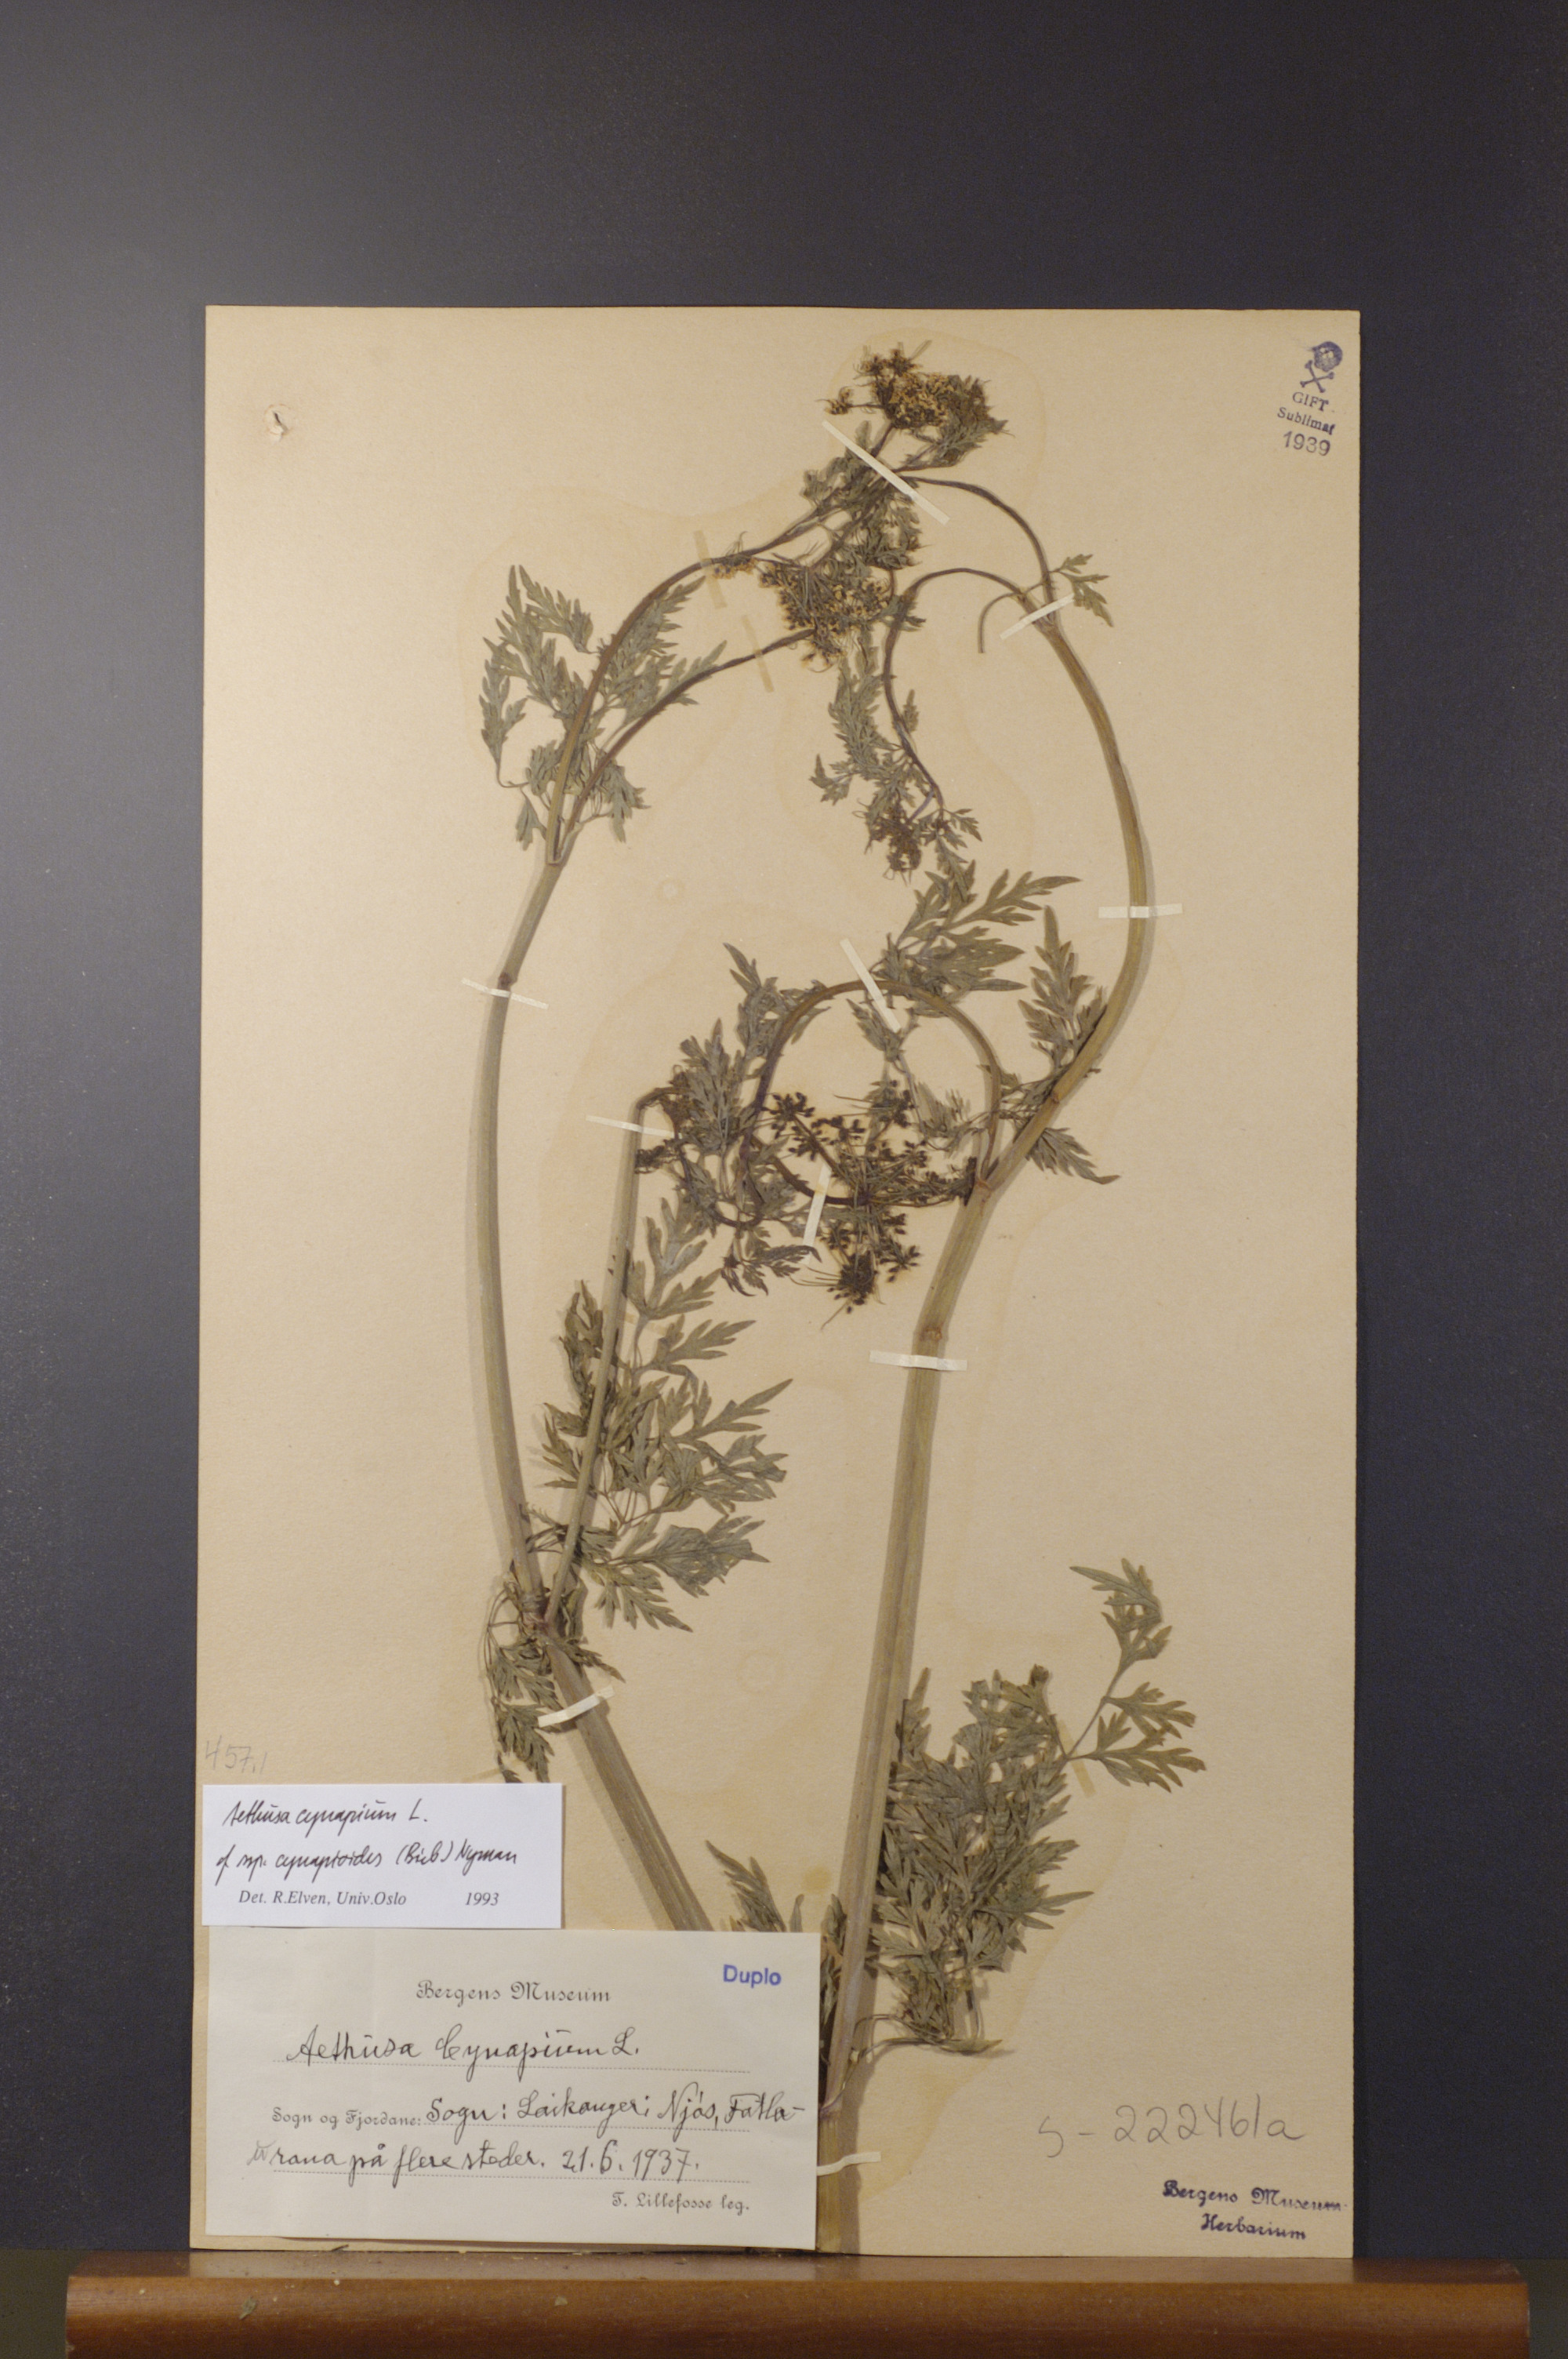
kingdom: Plantae
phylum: Tracheophyta
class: Magnoliopsida
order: Apiales
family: Apiaceae
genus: Aethusa
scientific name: Aethusa cynapium
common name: Fool's parsley
